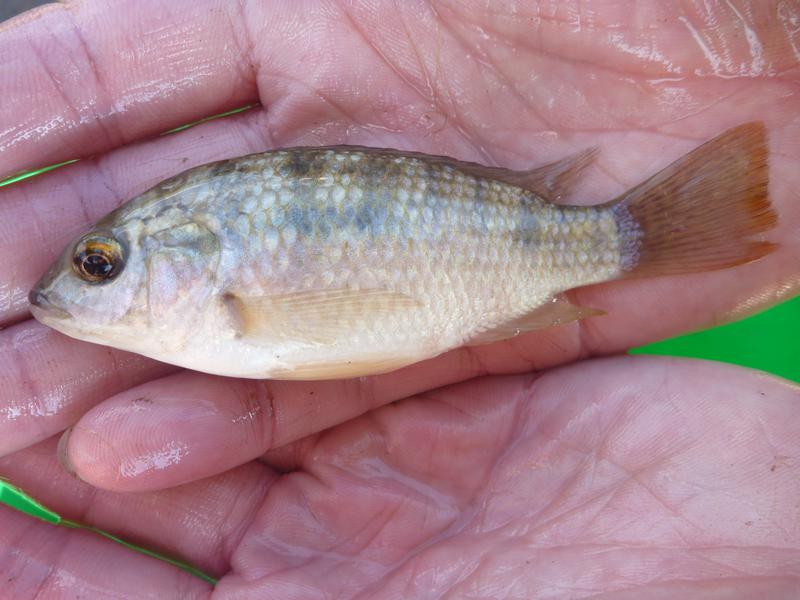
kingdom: Animalia
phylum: Chordata
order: Perciformes
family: Cichlidae
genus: Oreochromis
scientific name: Oreochromis shiranus
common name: Chilwa tilapia
